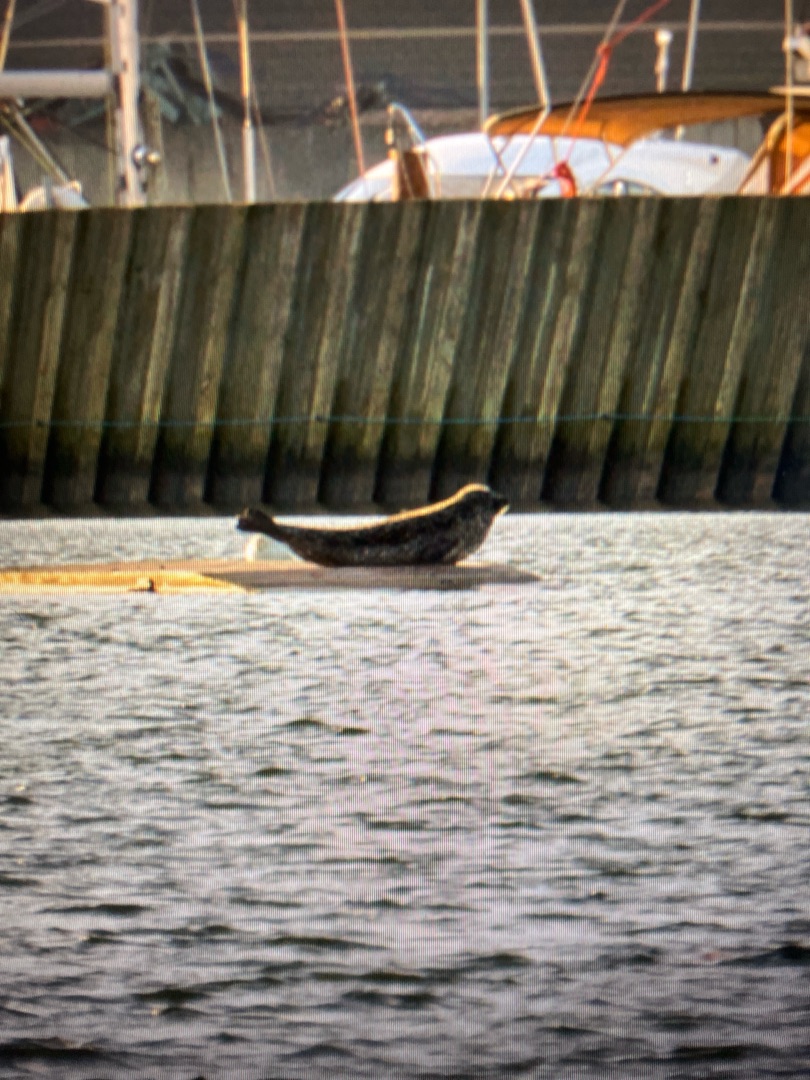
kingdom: Animalia
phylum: Chordata
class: Mammalia
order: Carnivora
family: Phocidae
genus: Phoca
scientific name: Phoca vitulina
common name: Spættet sæl
